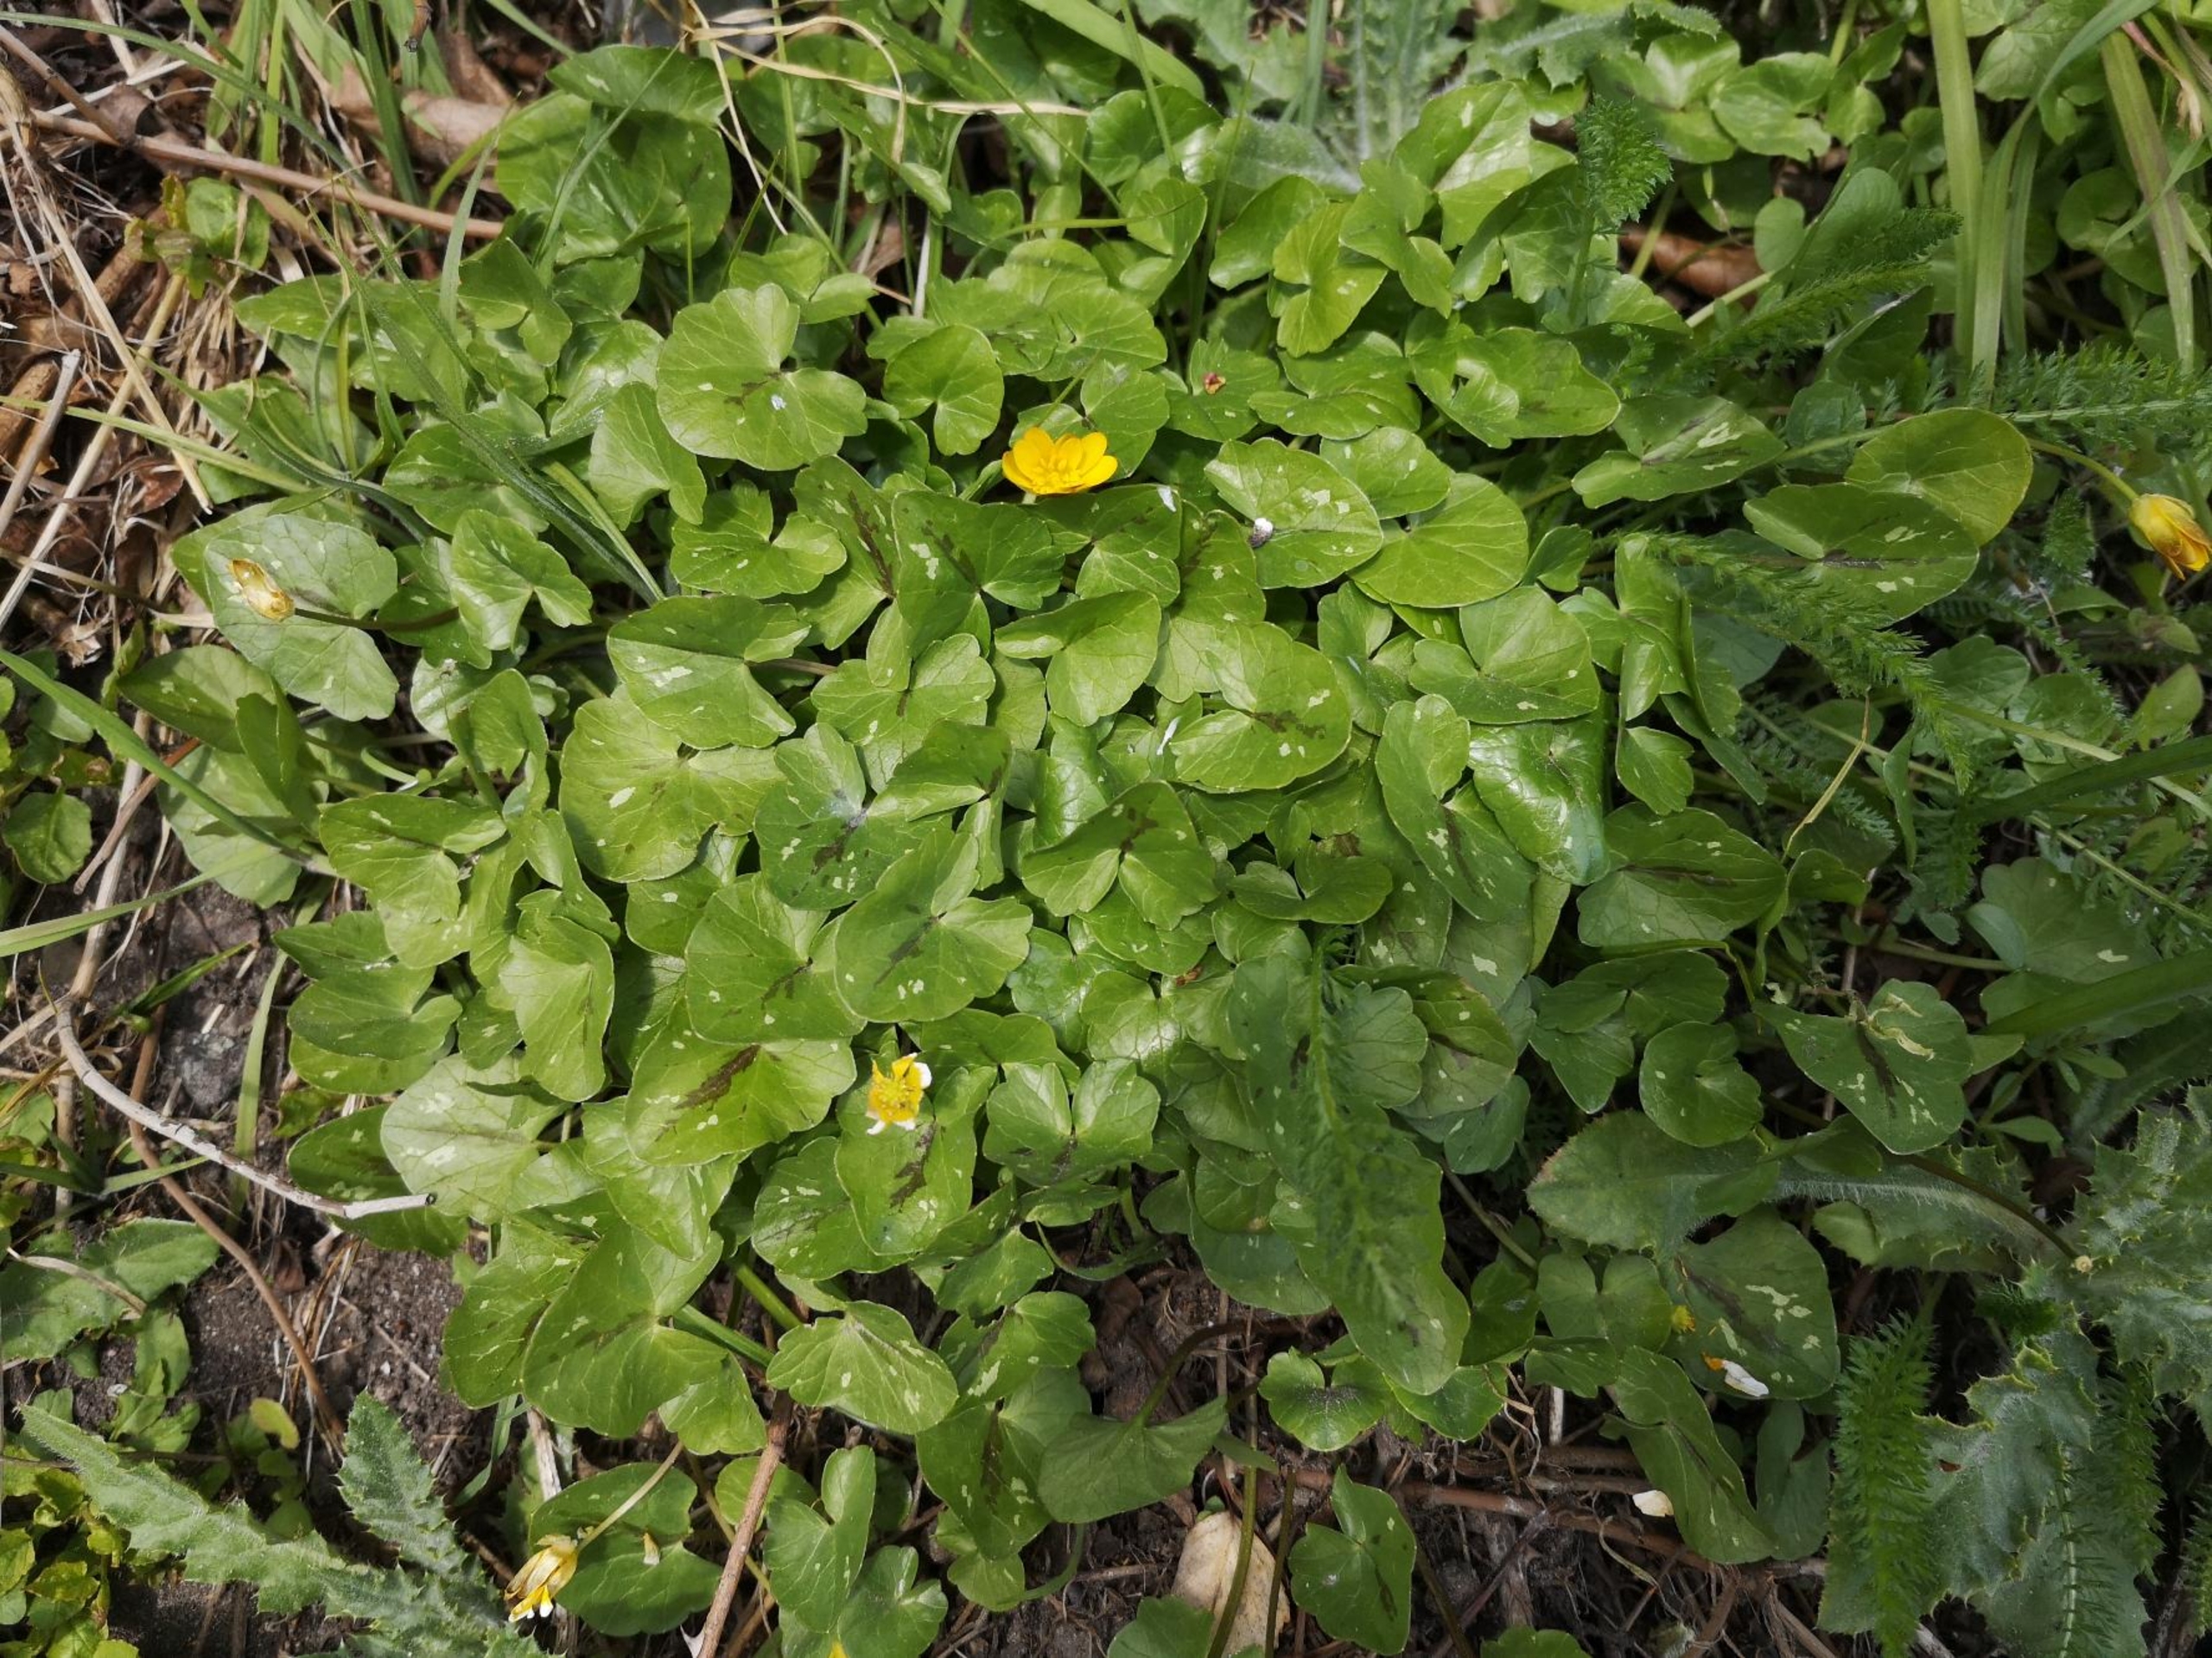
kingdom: Plantae
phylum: Tracheophyta
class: Magnoliopsida
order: Ranunculales
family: Ranunculaceae
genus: Ficaria
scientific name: Ficaria verna
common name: Vorterod
